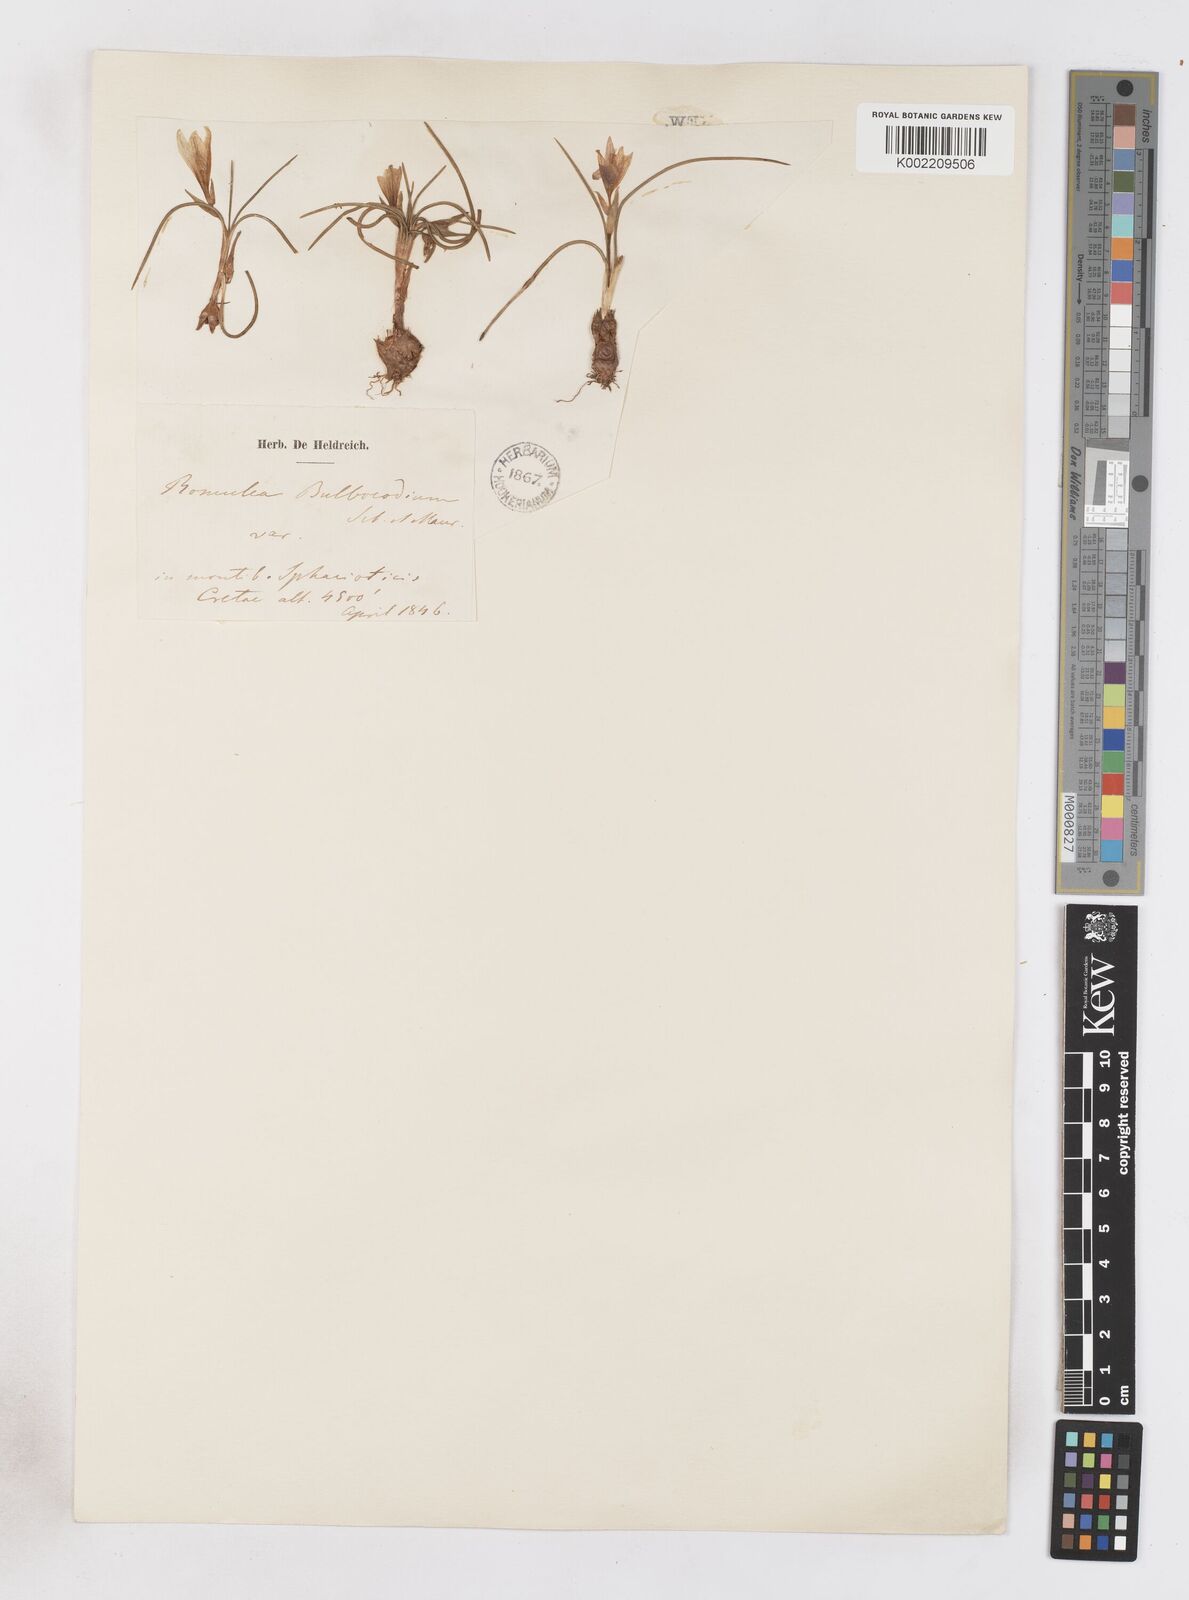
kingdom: Plantae
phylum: Tracheophyta
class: Liliopsida
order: Asparagales
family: Iridaceae
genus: Romulea
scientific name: Romulea bulbocodium
